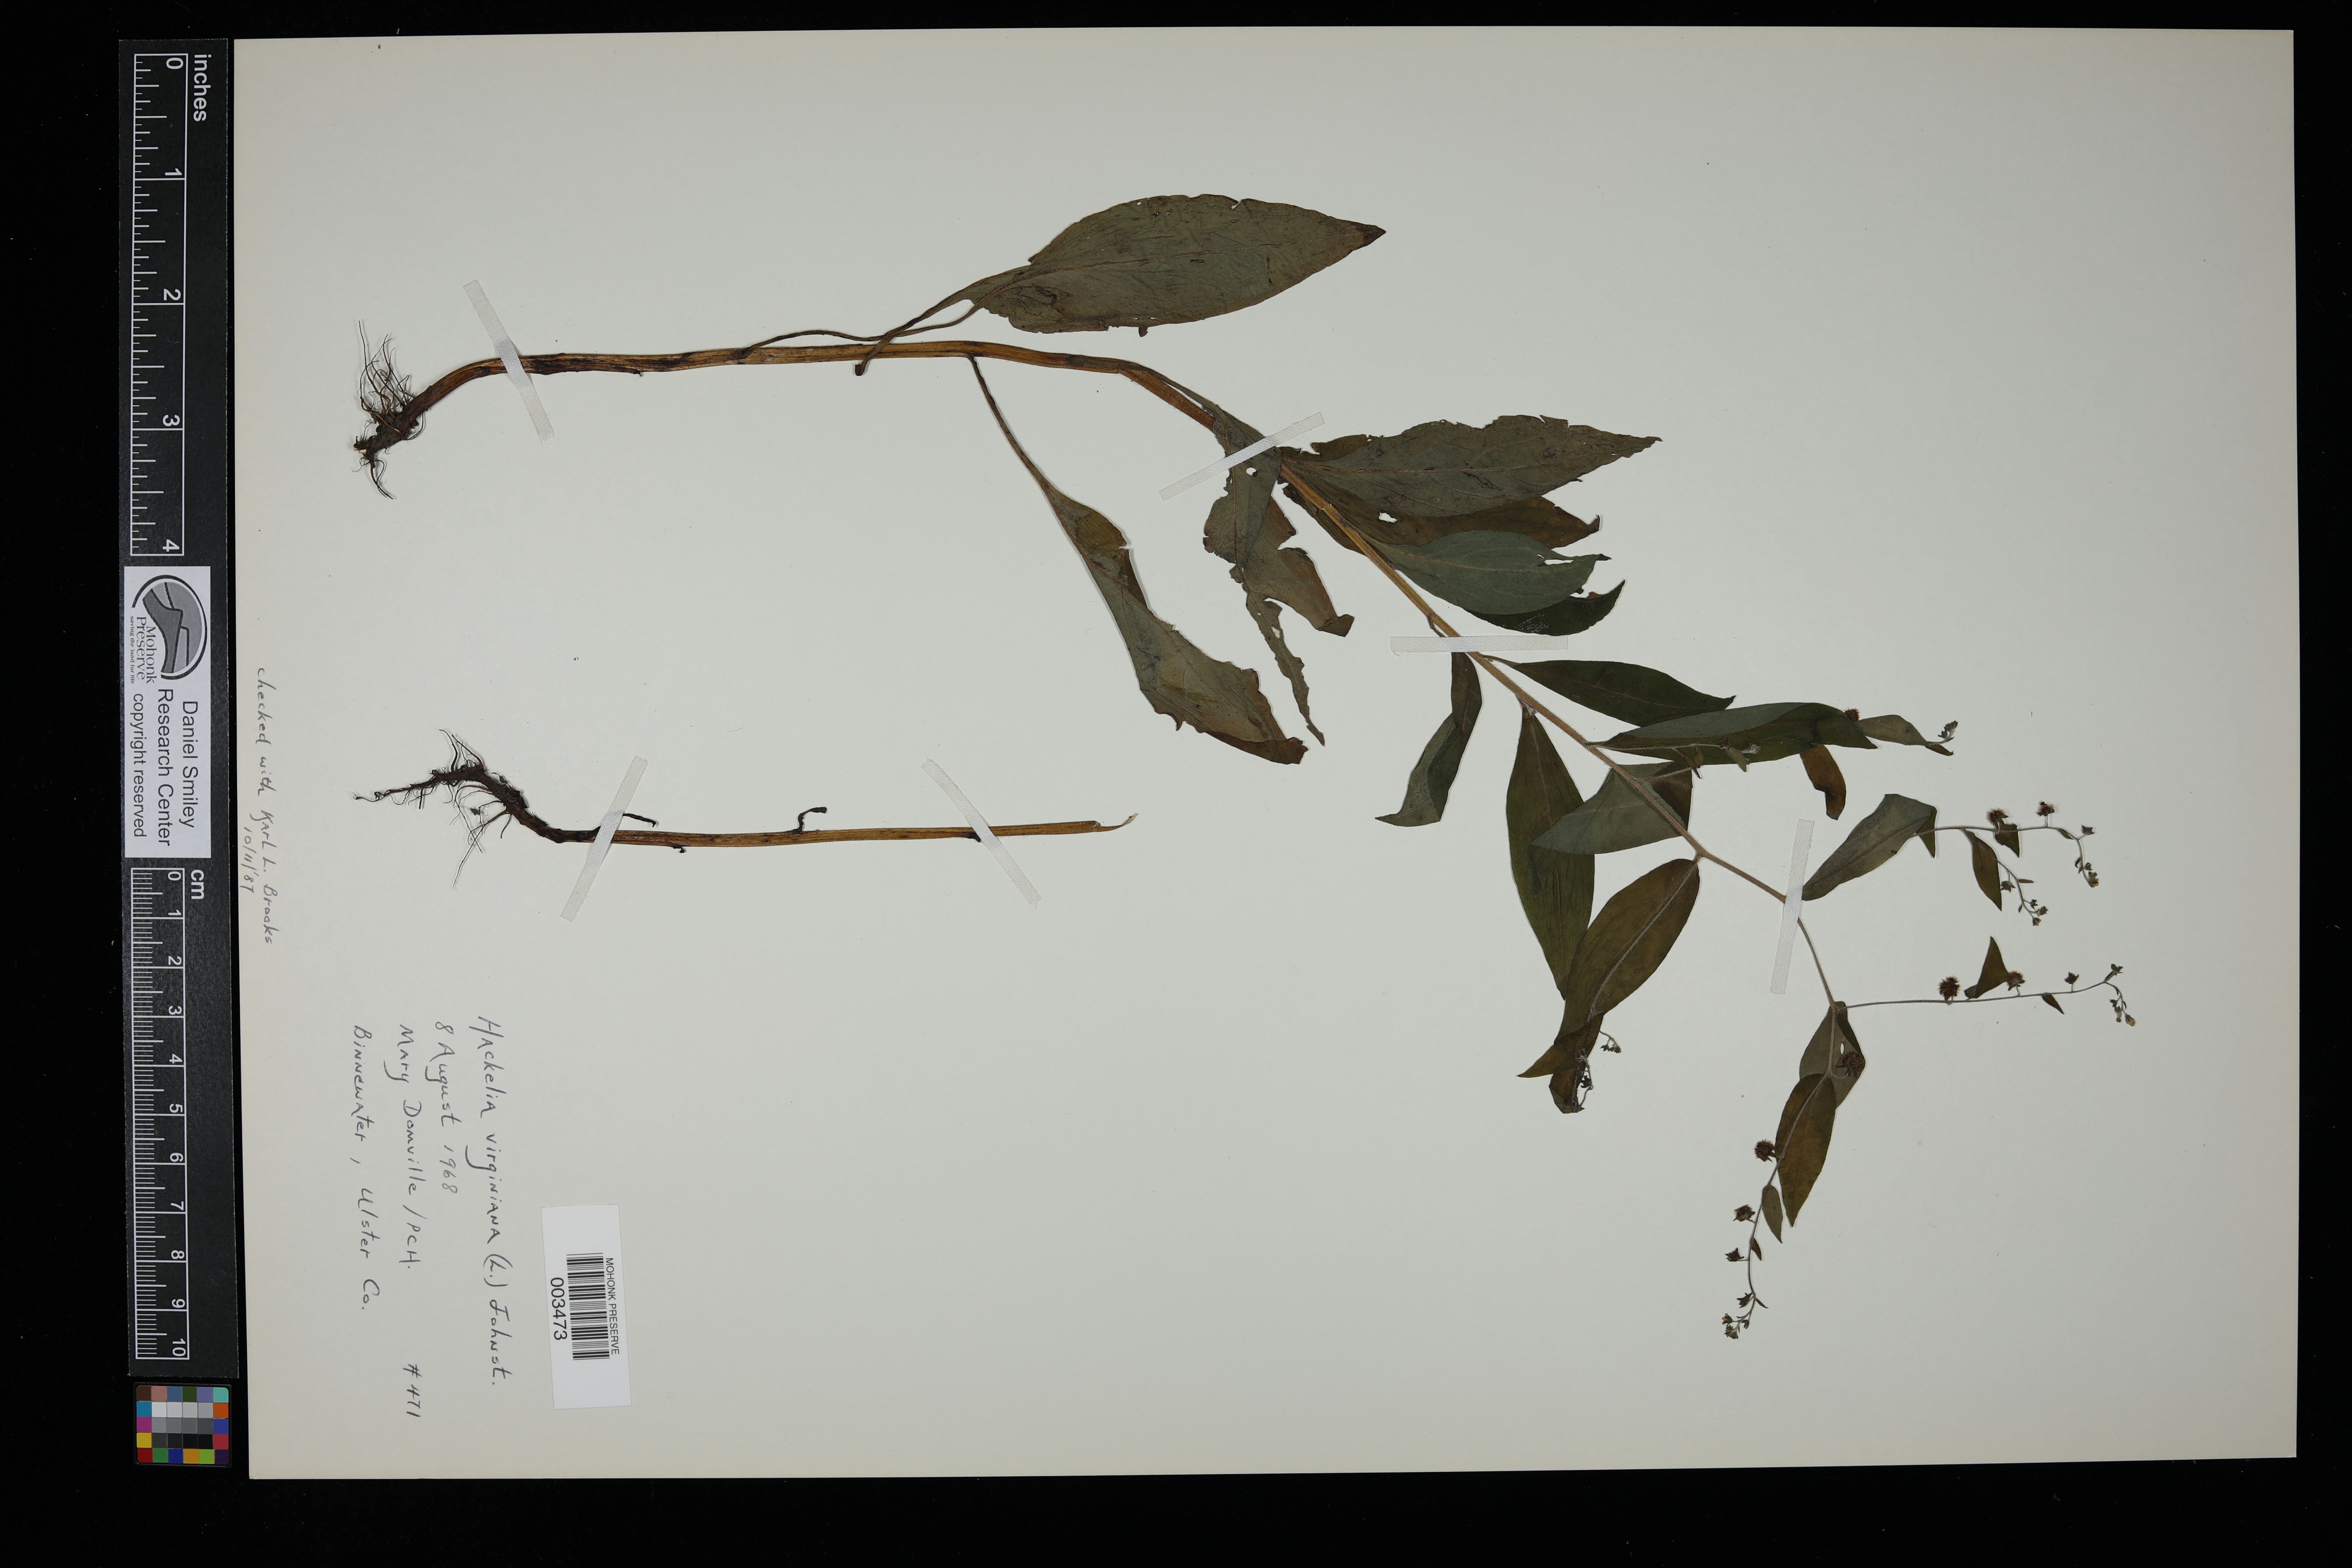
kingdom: Plantae
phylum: Tracheophyta
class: Magnoliopsida
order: Boraginales
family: Boraginaceae
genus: Hackelia
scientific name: Hackelia virginiana
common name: Beggar's-lice
